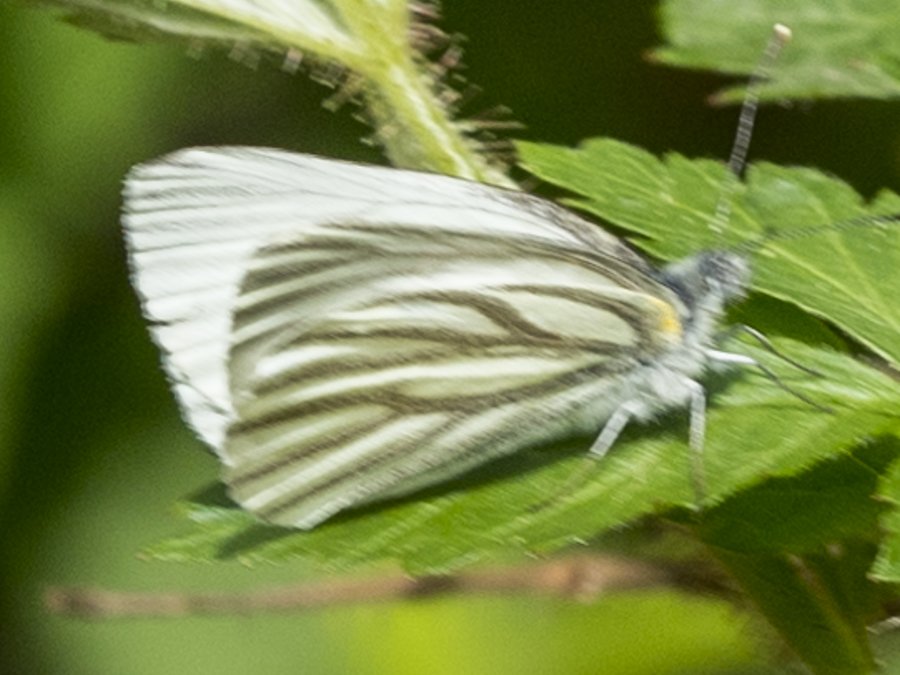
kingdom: Animalia
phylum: Arthropoda
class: Insecta
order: Lepidoptera
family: Pieridae
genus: Pieris
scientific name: Pieris oleracea
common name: Mustard White
